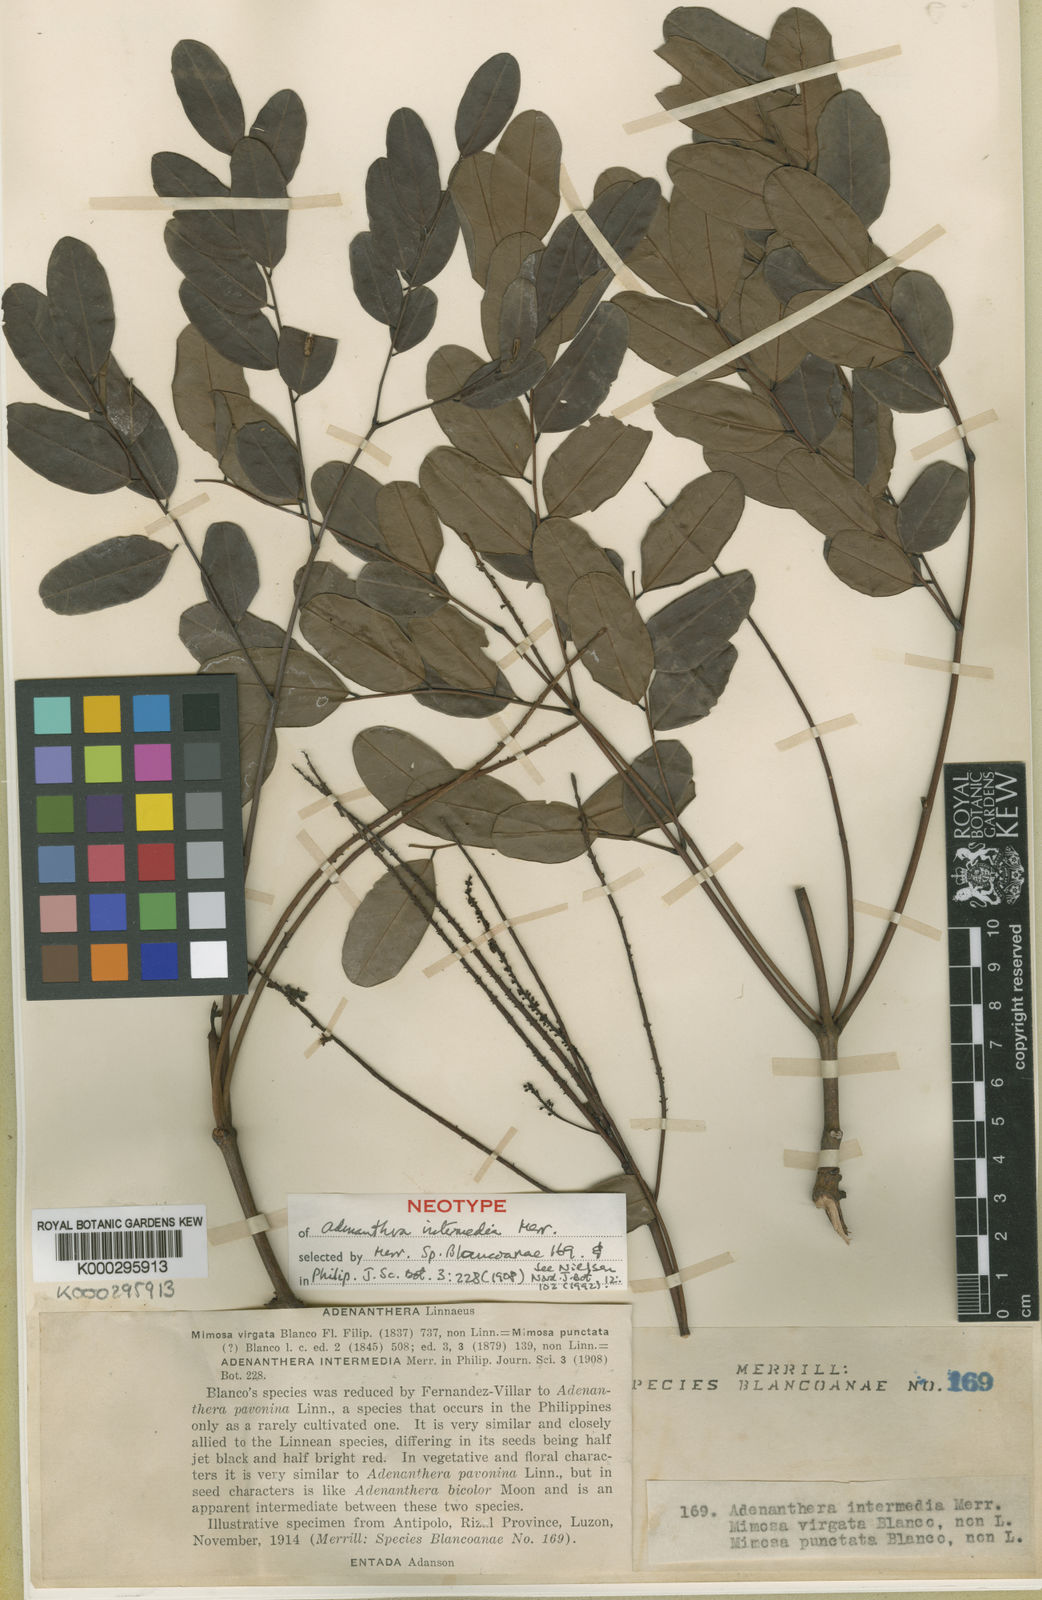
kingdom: Plantae
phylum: Tracheophyta
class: Magnoliopsida
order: Fabales
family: Fabaceae
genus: Adenanthera
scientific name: Adenanthera intermedia
